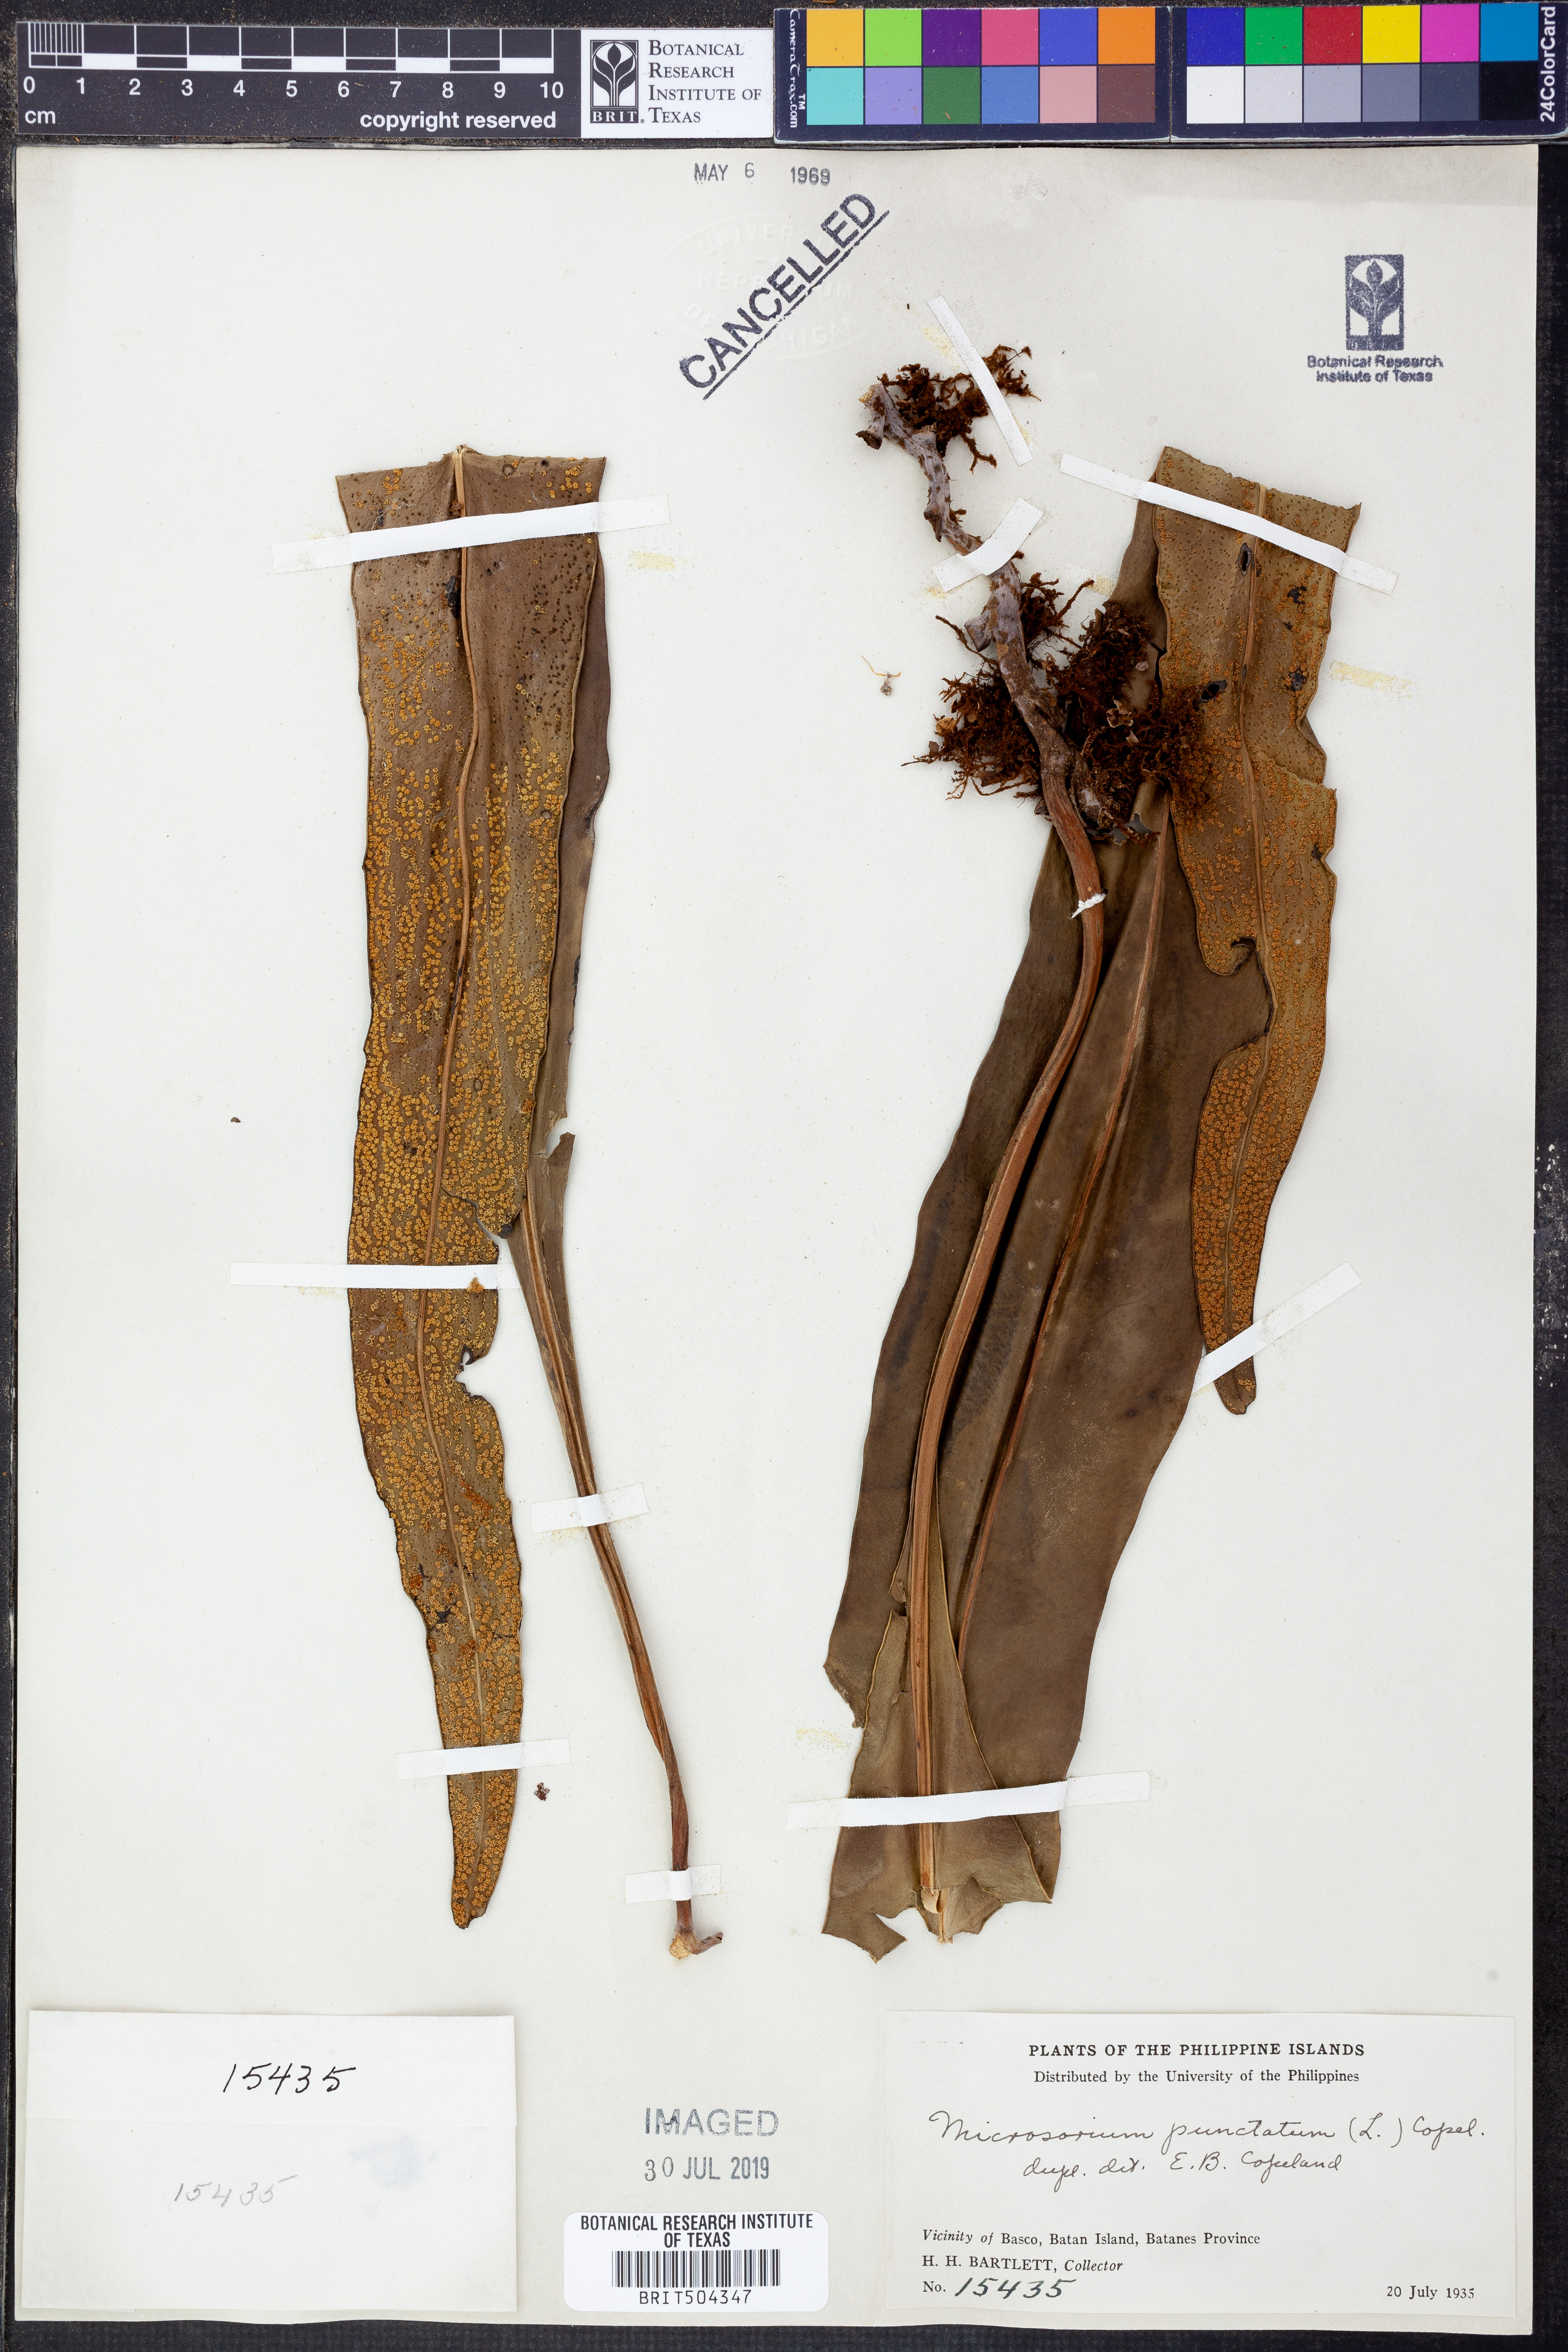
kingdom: Plantae
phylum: Tracheophyta
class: Polypodiopsida
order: Polypodiales
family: Polypodiaceae
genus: Microsorum
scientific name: Microsorum punctatum
